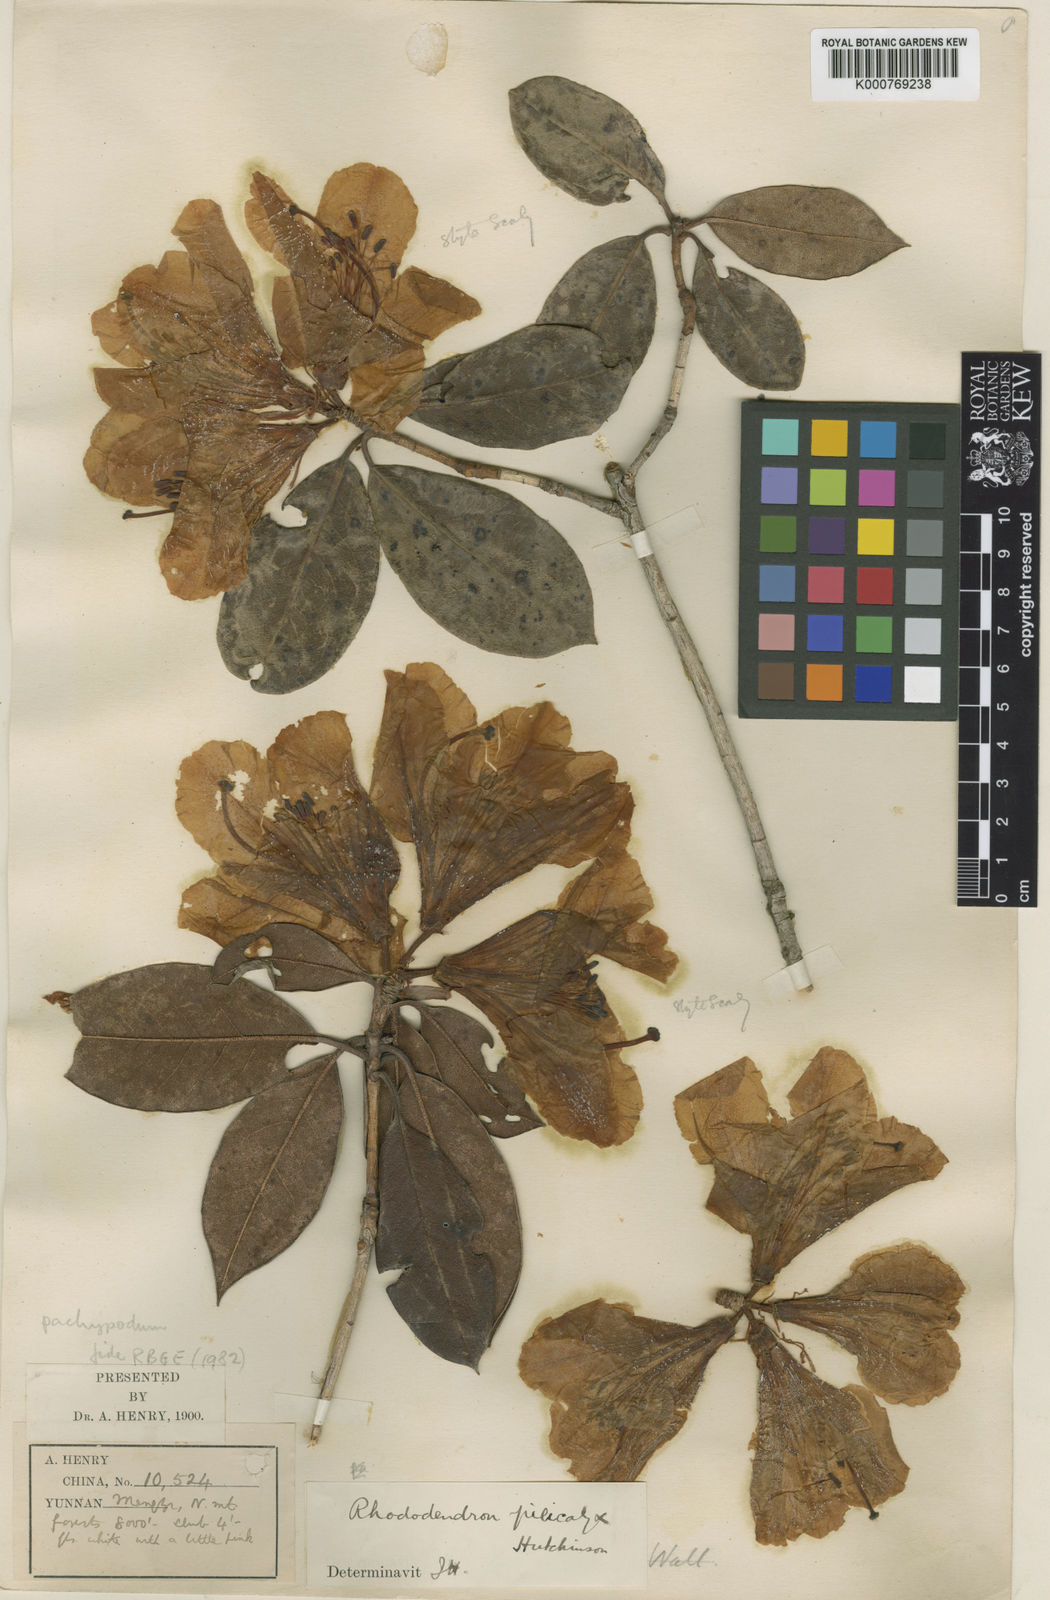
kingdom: Plantae
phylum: Tracheophyta
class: Magnoliopsida
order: Ericales
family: Ericaceae
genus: Rhododendron
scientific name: Rhododendron pachypodum
